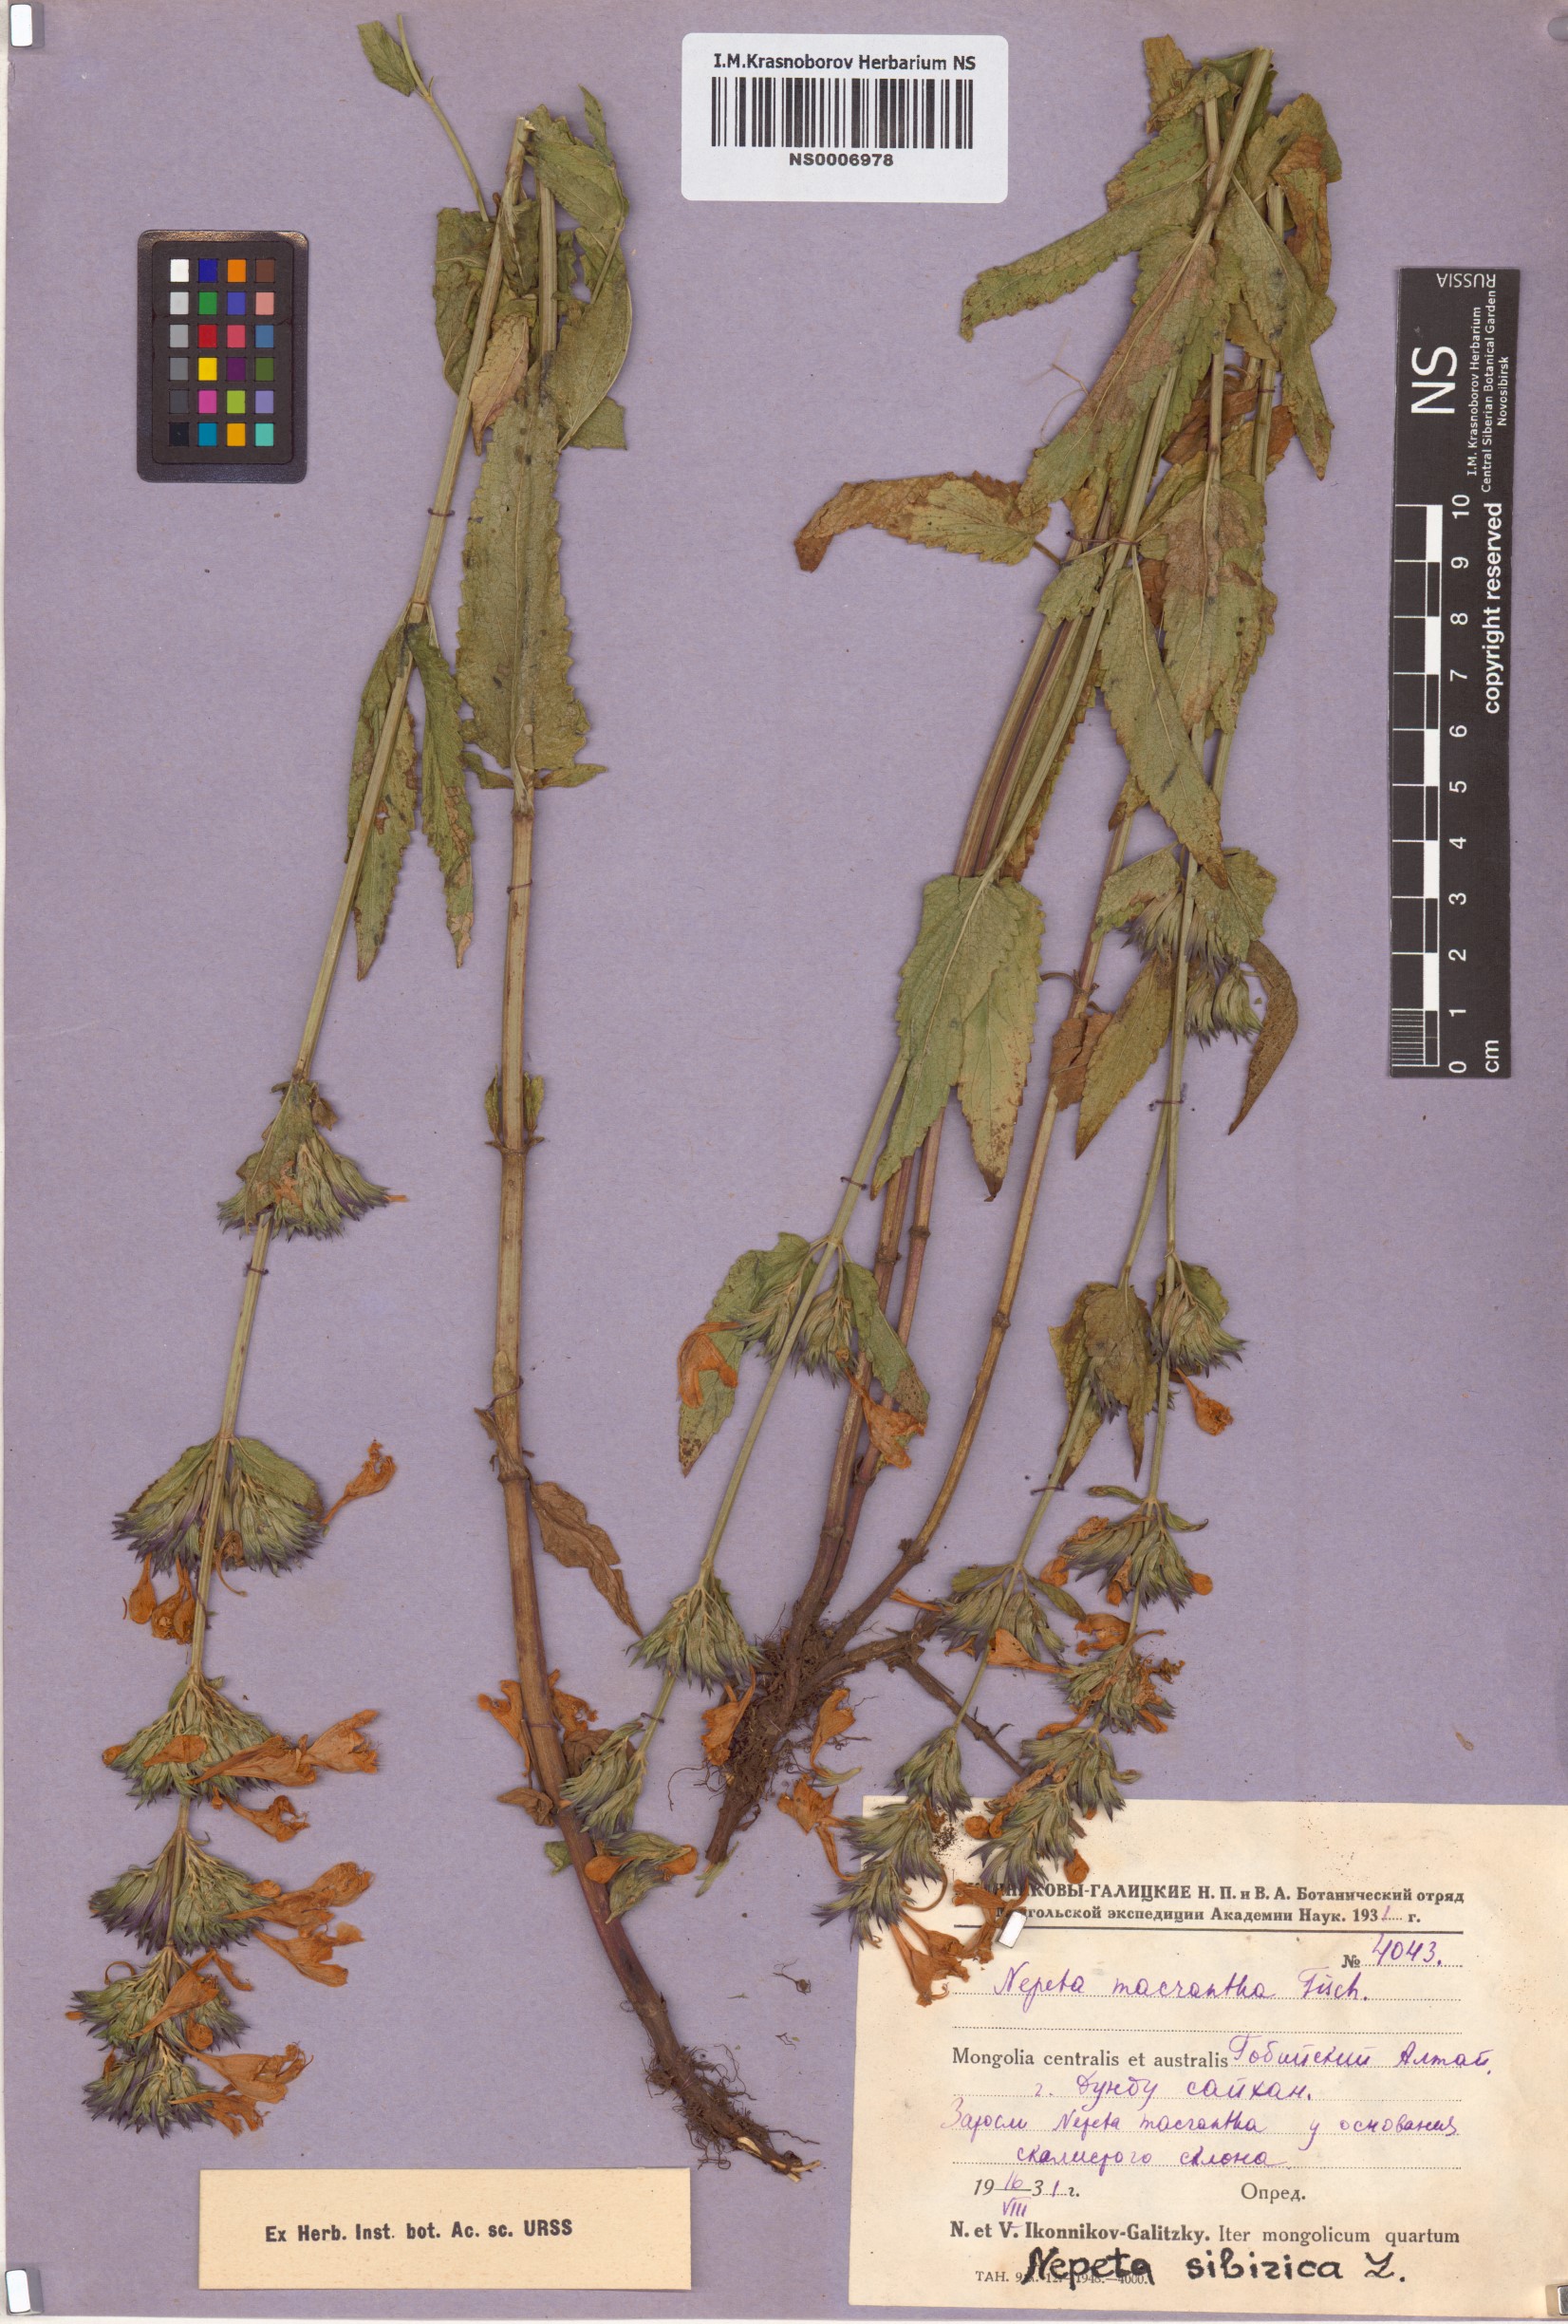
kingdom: Plantae
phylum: Tracheophyta
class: Magnoliopsida
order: Lamiales
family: Lamiaceae
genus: Nepeta
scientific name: Nepeta sibirica
